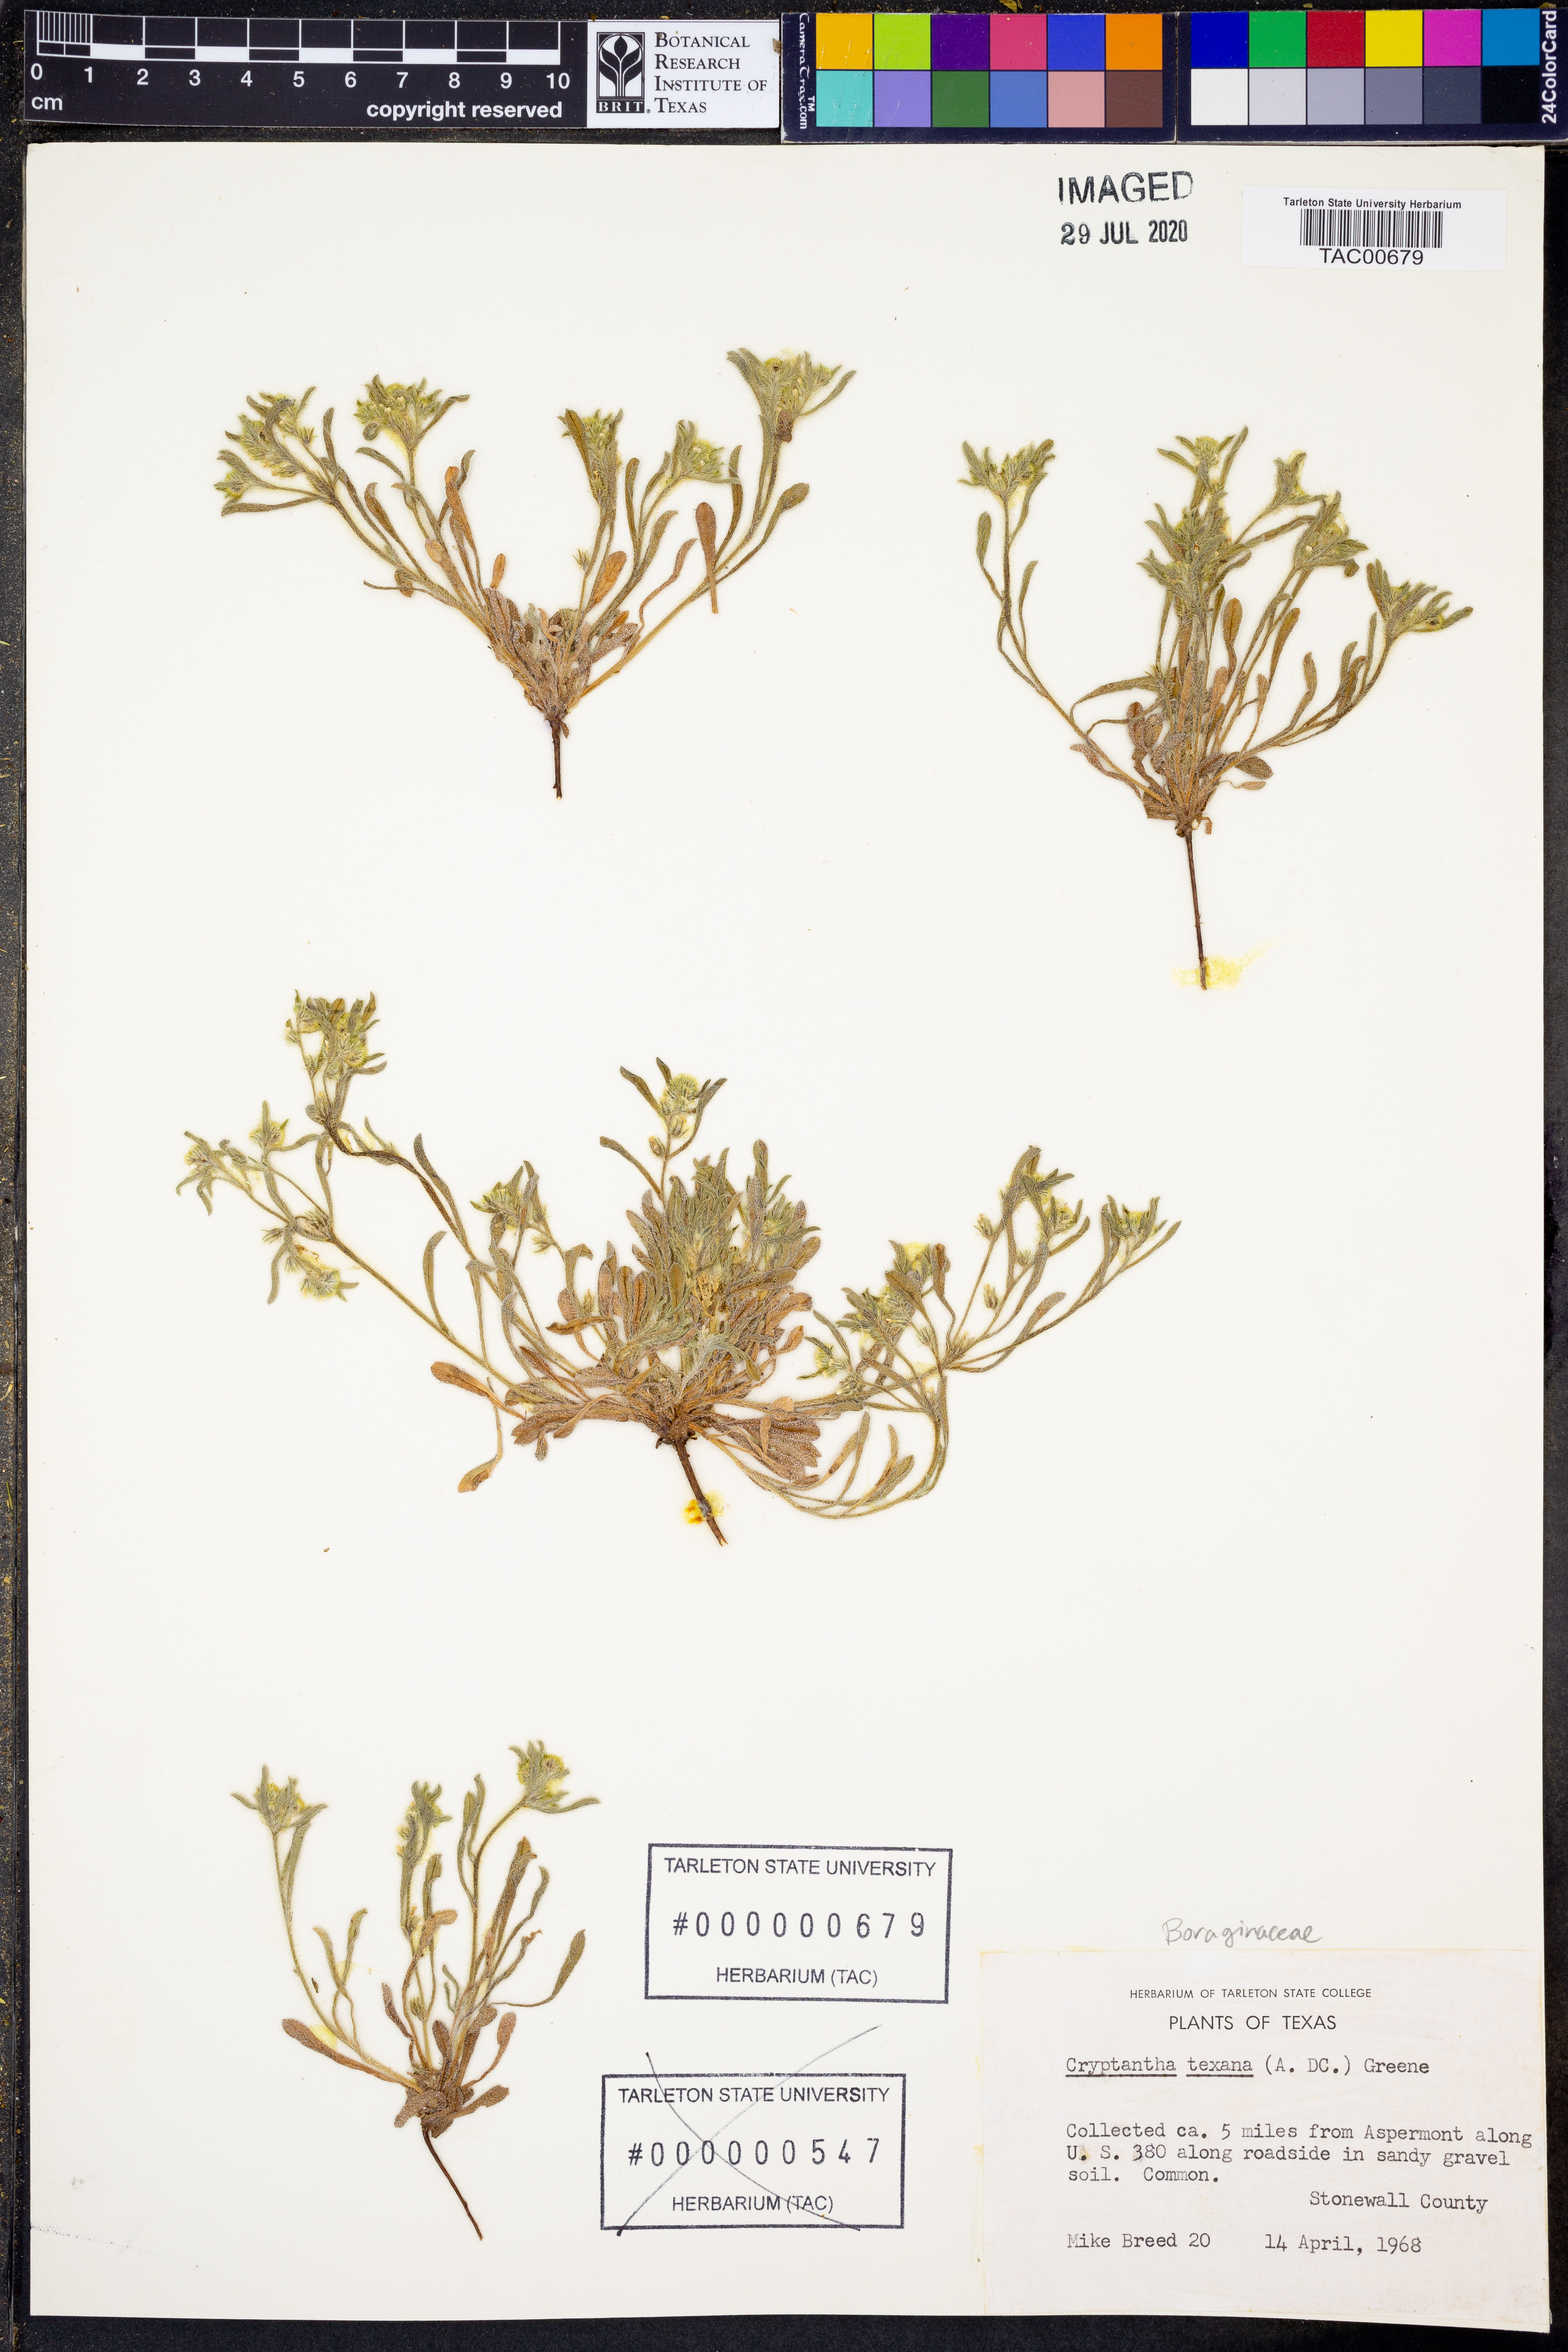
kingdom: Plantae
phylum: Tracheophyta
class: Magnoliopsida
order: Boraginales
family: Boraginaceae
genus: Cryptantha
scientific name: Cryptantha texana
